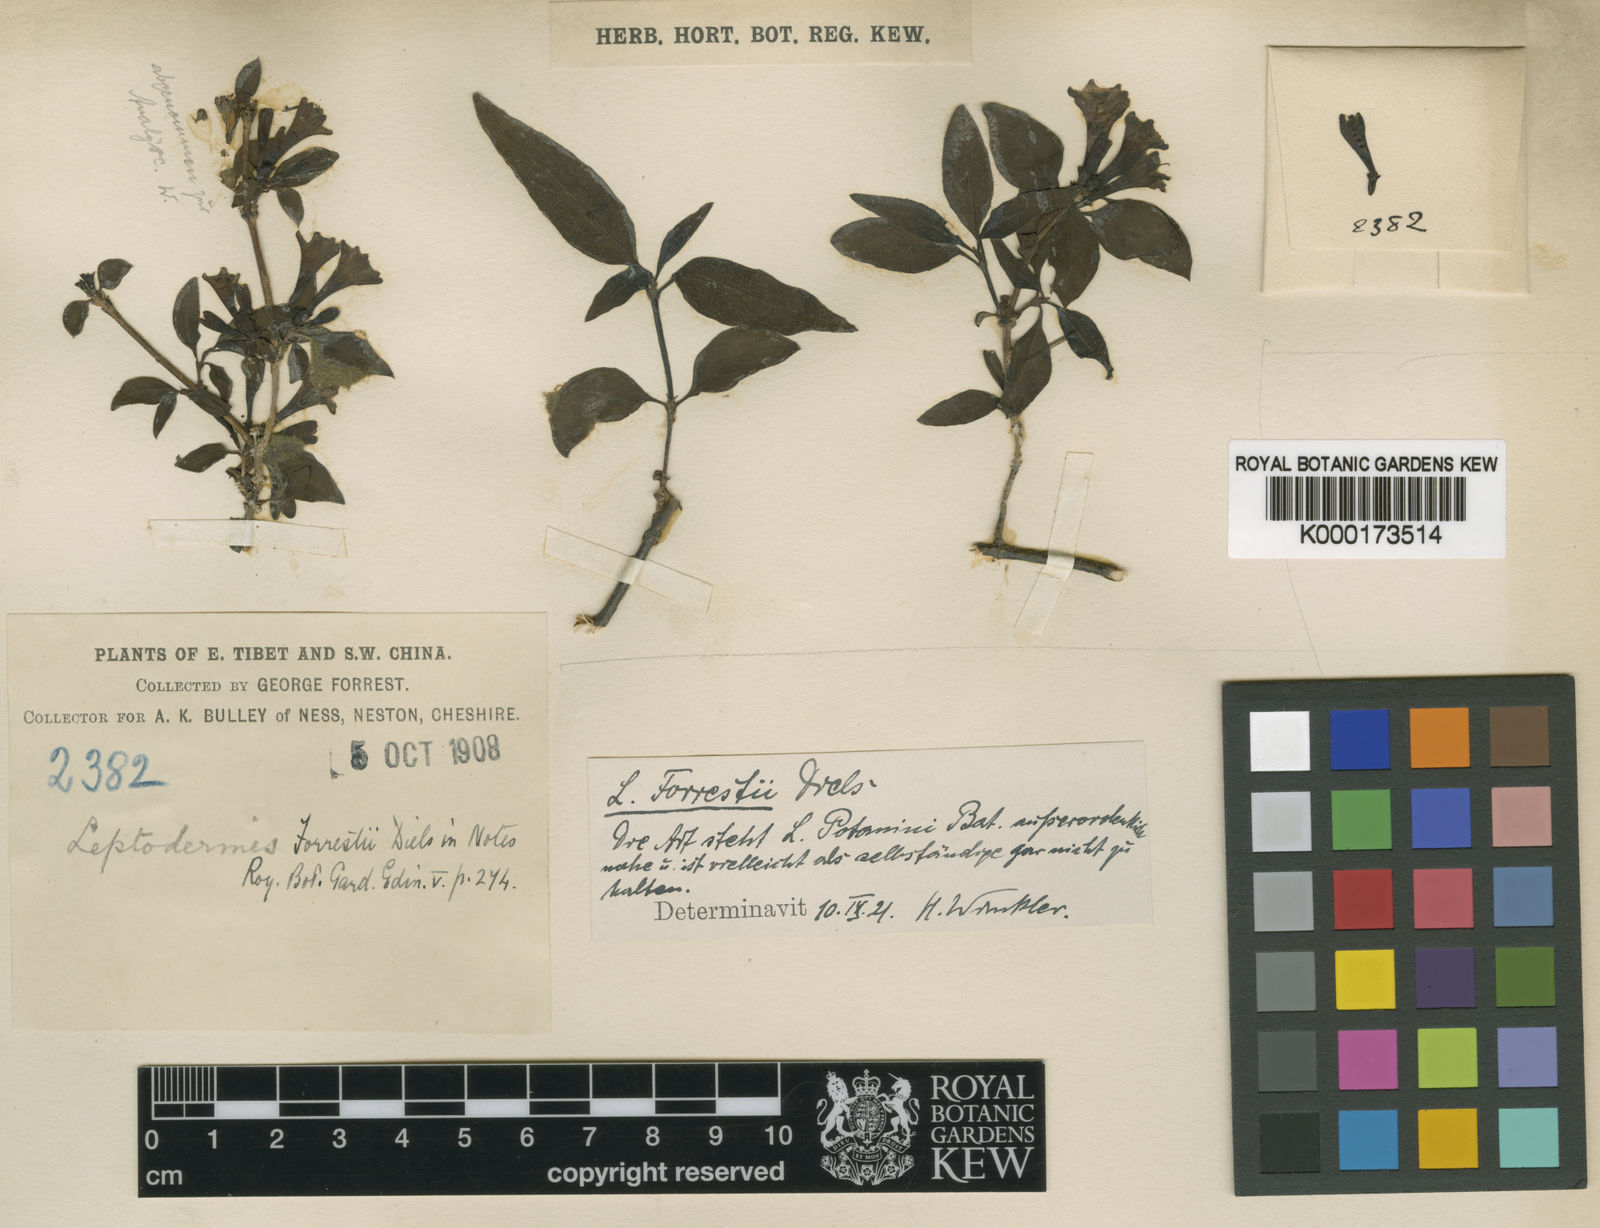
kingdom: Plantae
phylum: Tracheophyta
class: Magnoliopsida
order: Gentianales
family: Rubiaceae
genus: Leptodermis
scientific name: Leptodermis forrestii
